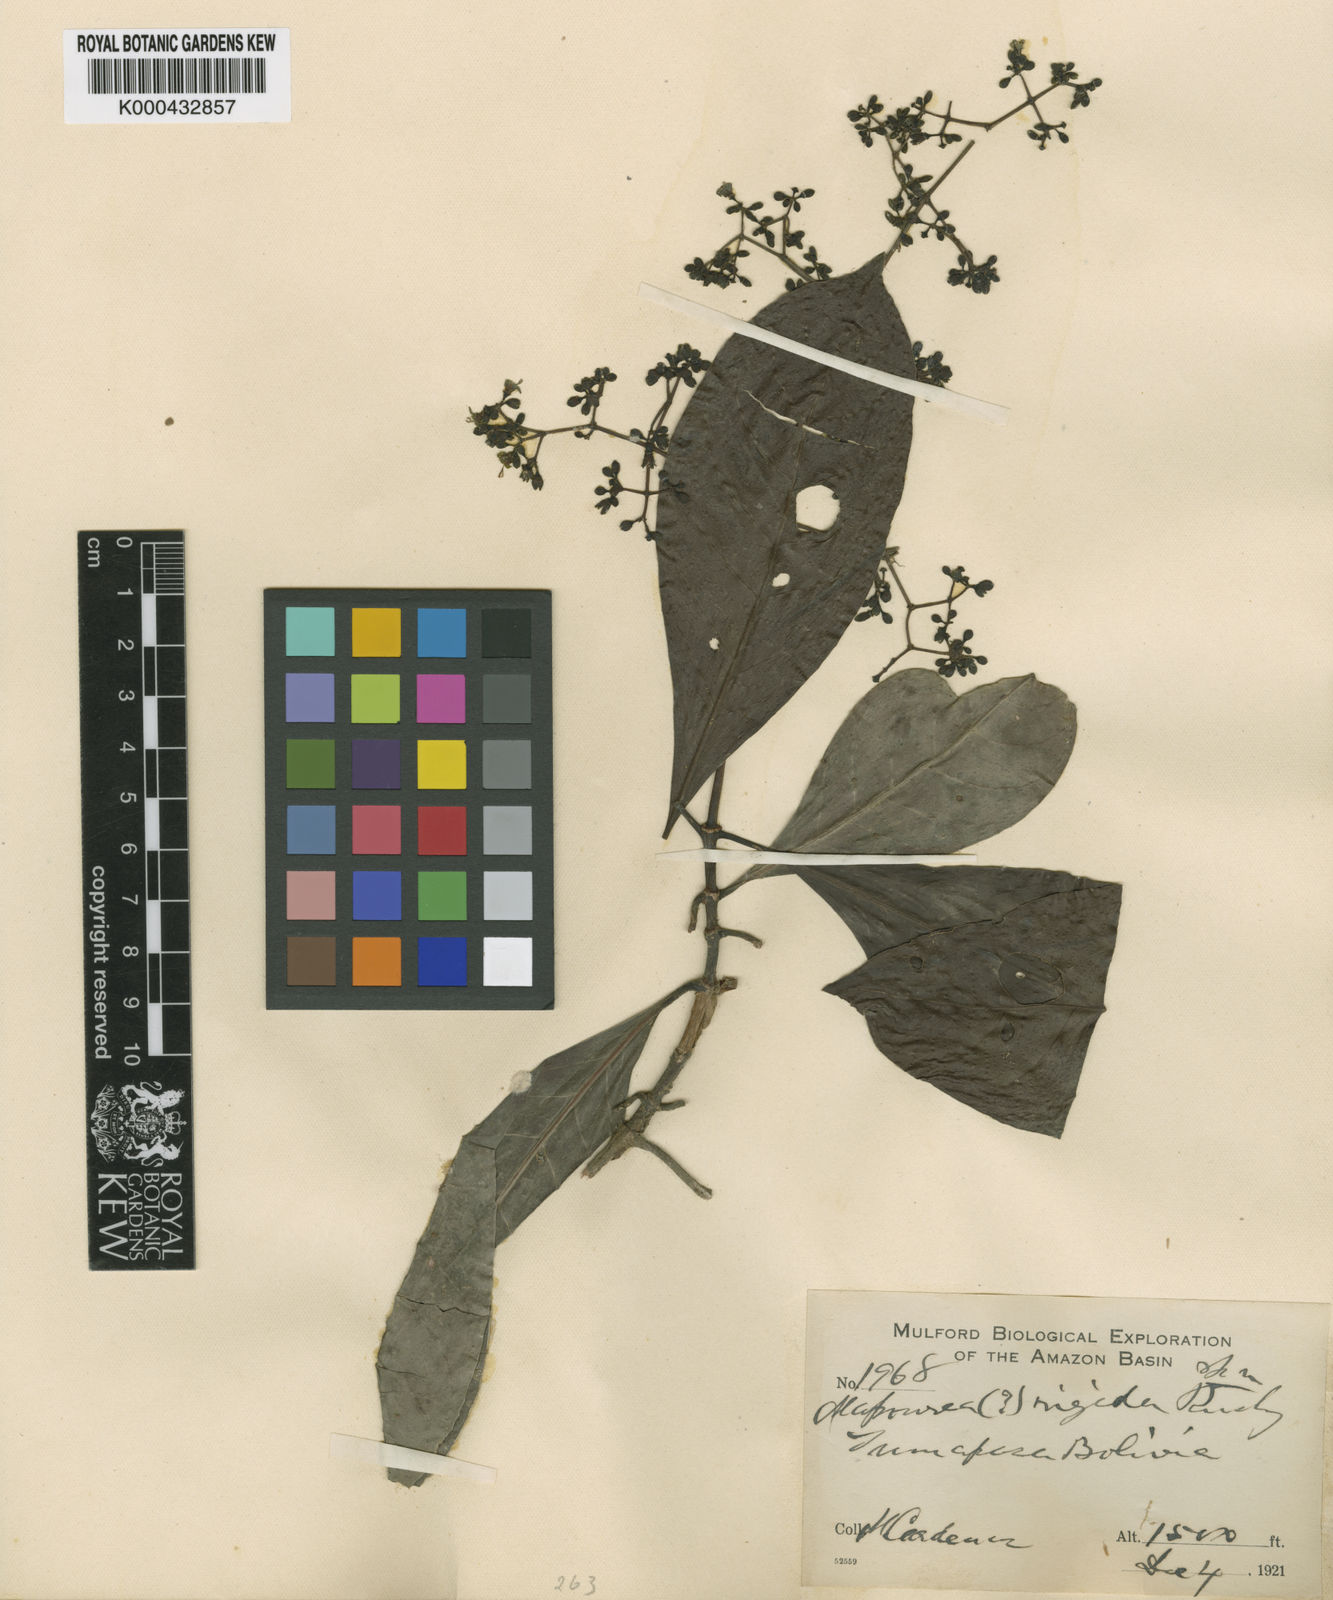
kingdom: Plantae
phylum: Tracheophyta
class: Magnoliopsida
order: Gentianales
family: Rubiaceae
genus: Psychotria
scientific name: Psychotria alba
